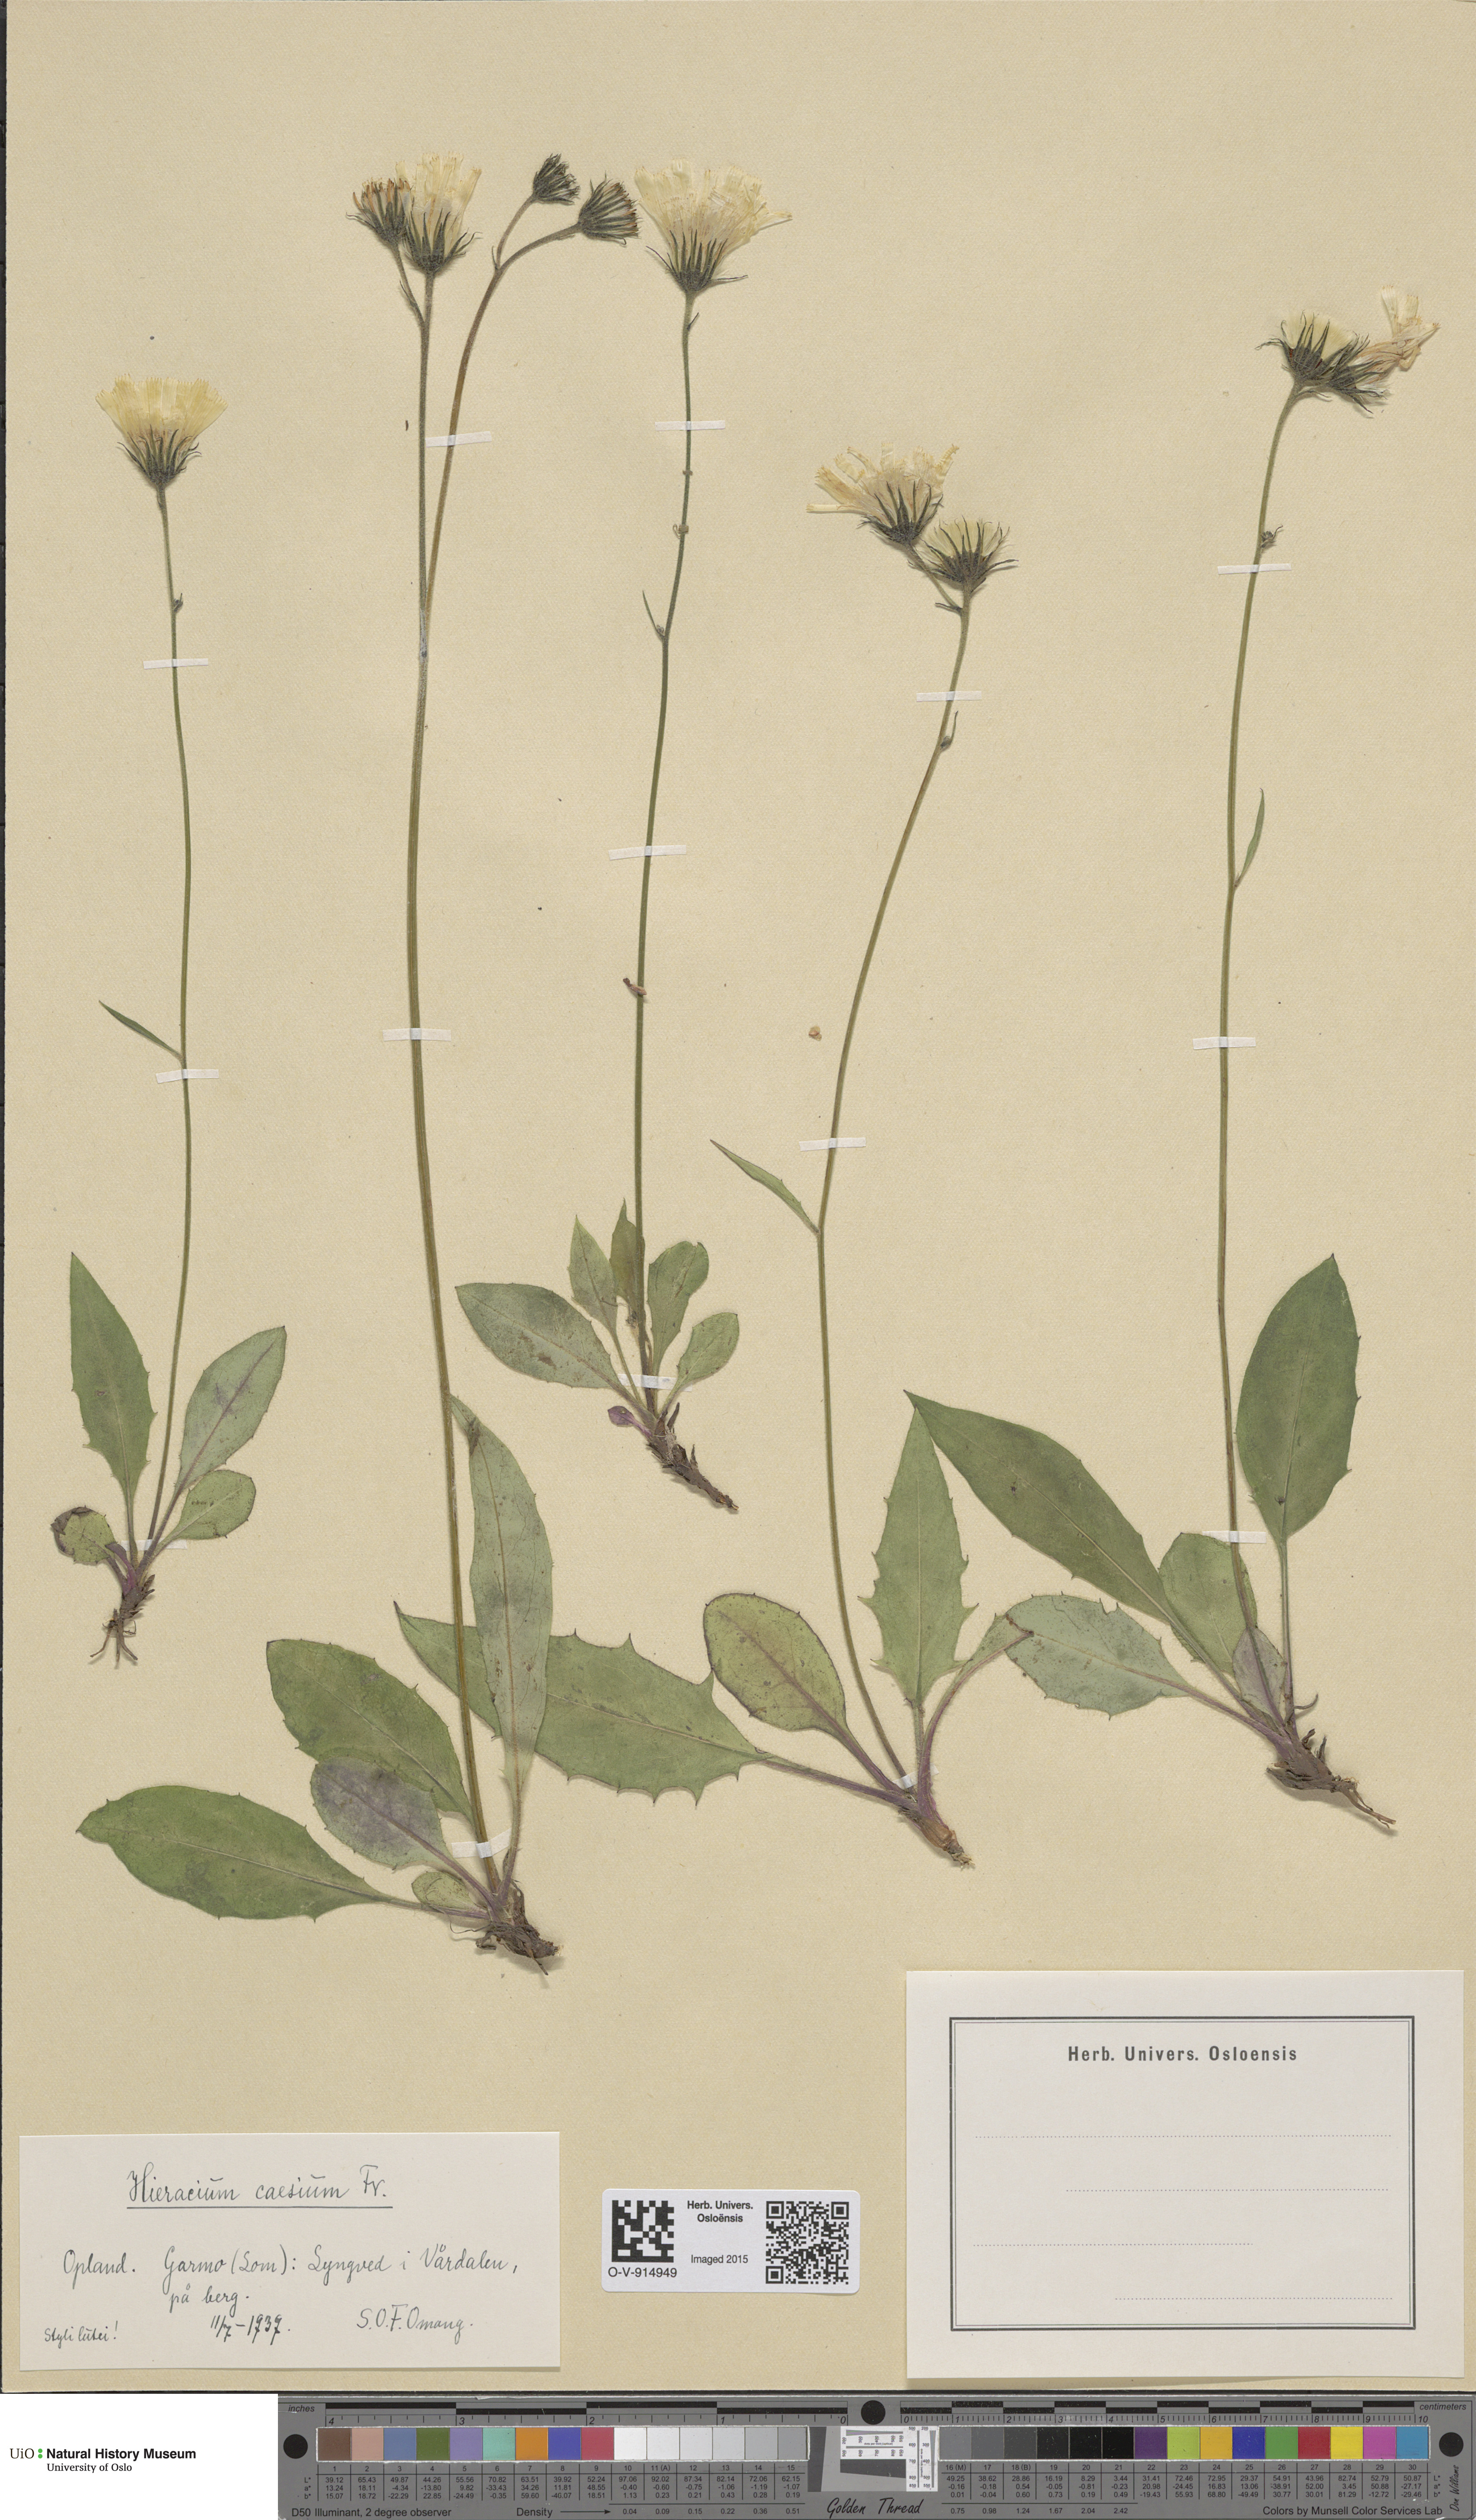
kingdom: Plantae
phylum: Tracheophyta
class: Magnoliopsida
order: Asterales
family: Asteraceae
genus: Hieracium
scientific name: Hieracium caesium
